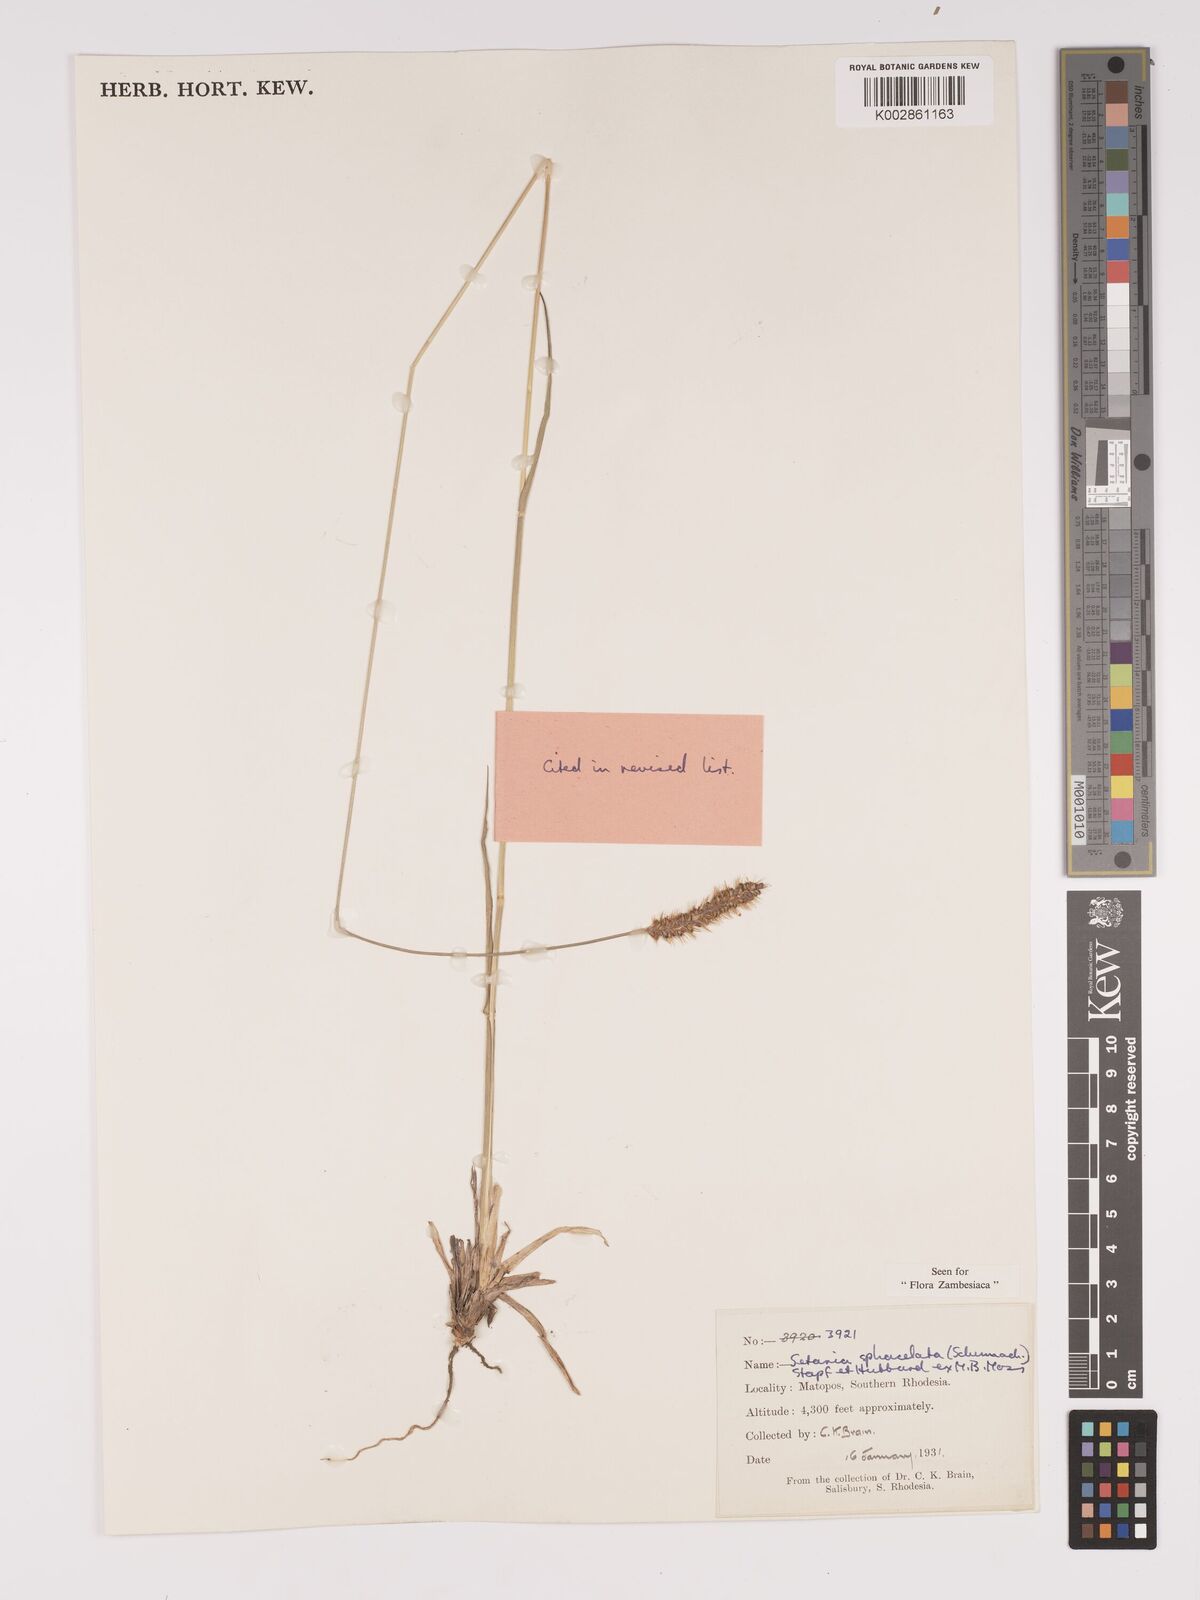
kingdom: Plantae
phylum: Tracheophyta
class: Liliopsida
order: Poales
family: Poaceae
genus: Setaria
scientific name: Setaria sphacelata
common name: African bristlegrass
